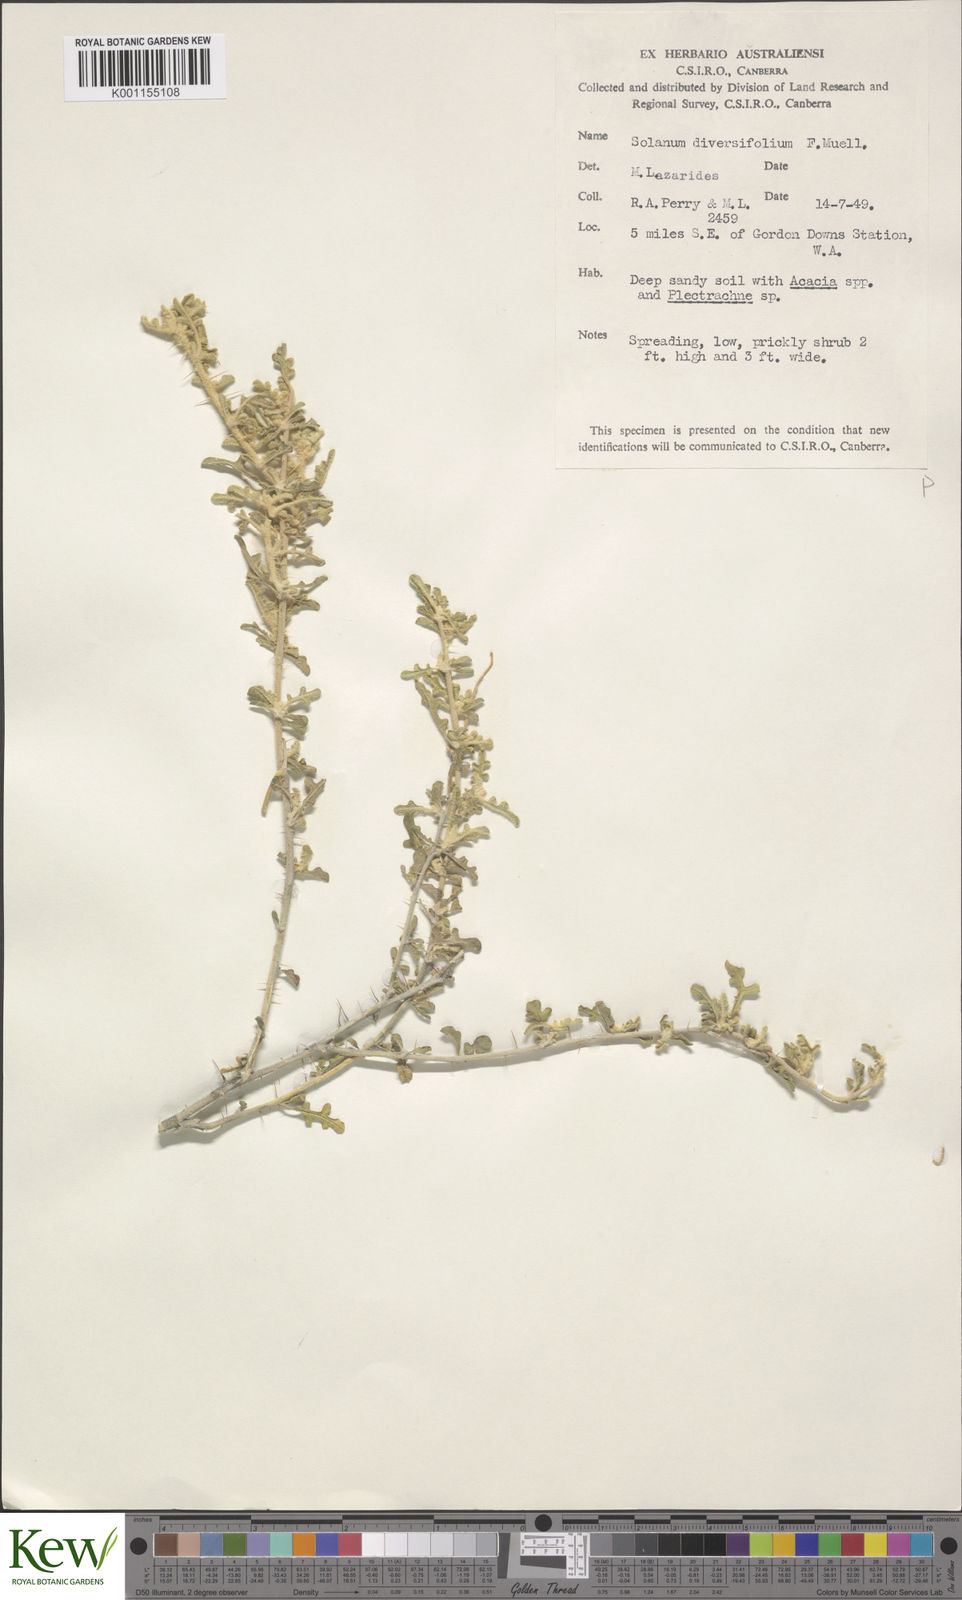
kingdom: Plantae
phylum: Tracheophyta
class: Magnoliopsida
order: Solanales
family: Solanaceae
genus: Solanum
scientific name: Solanum diversiflorum
